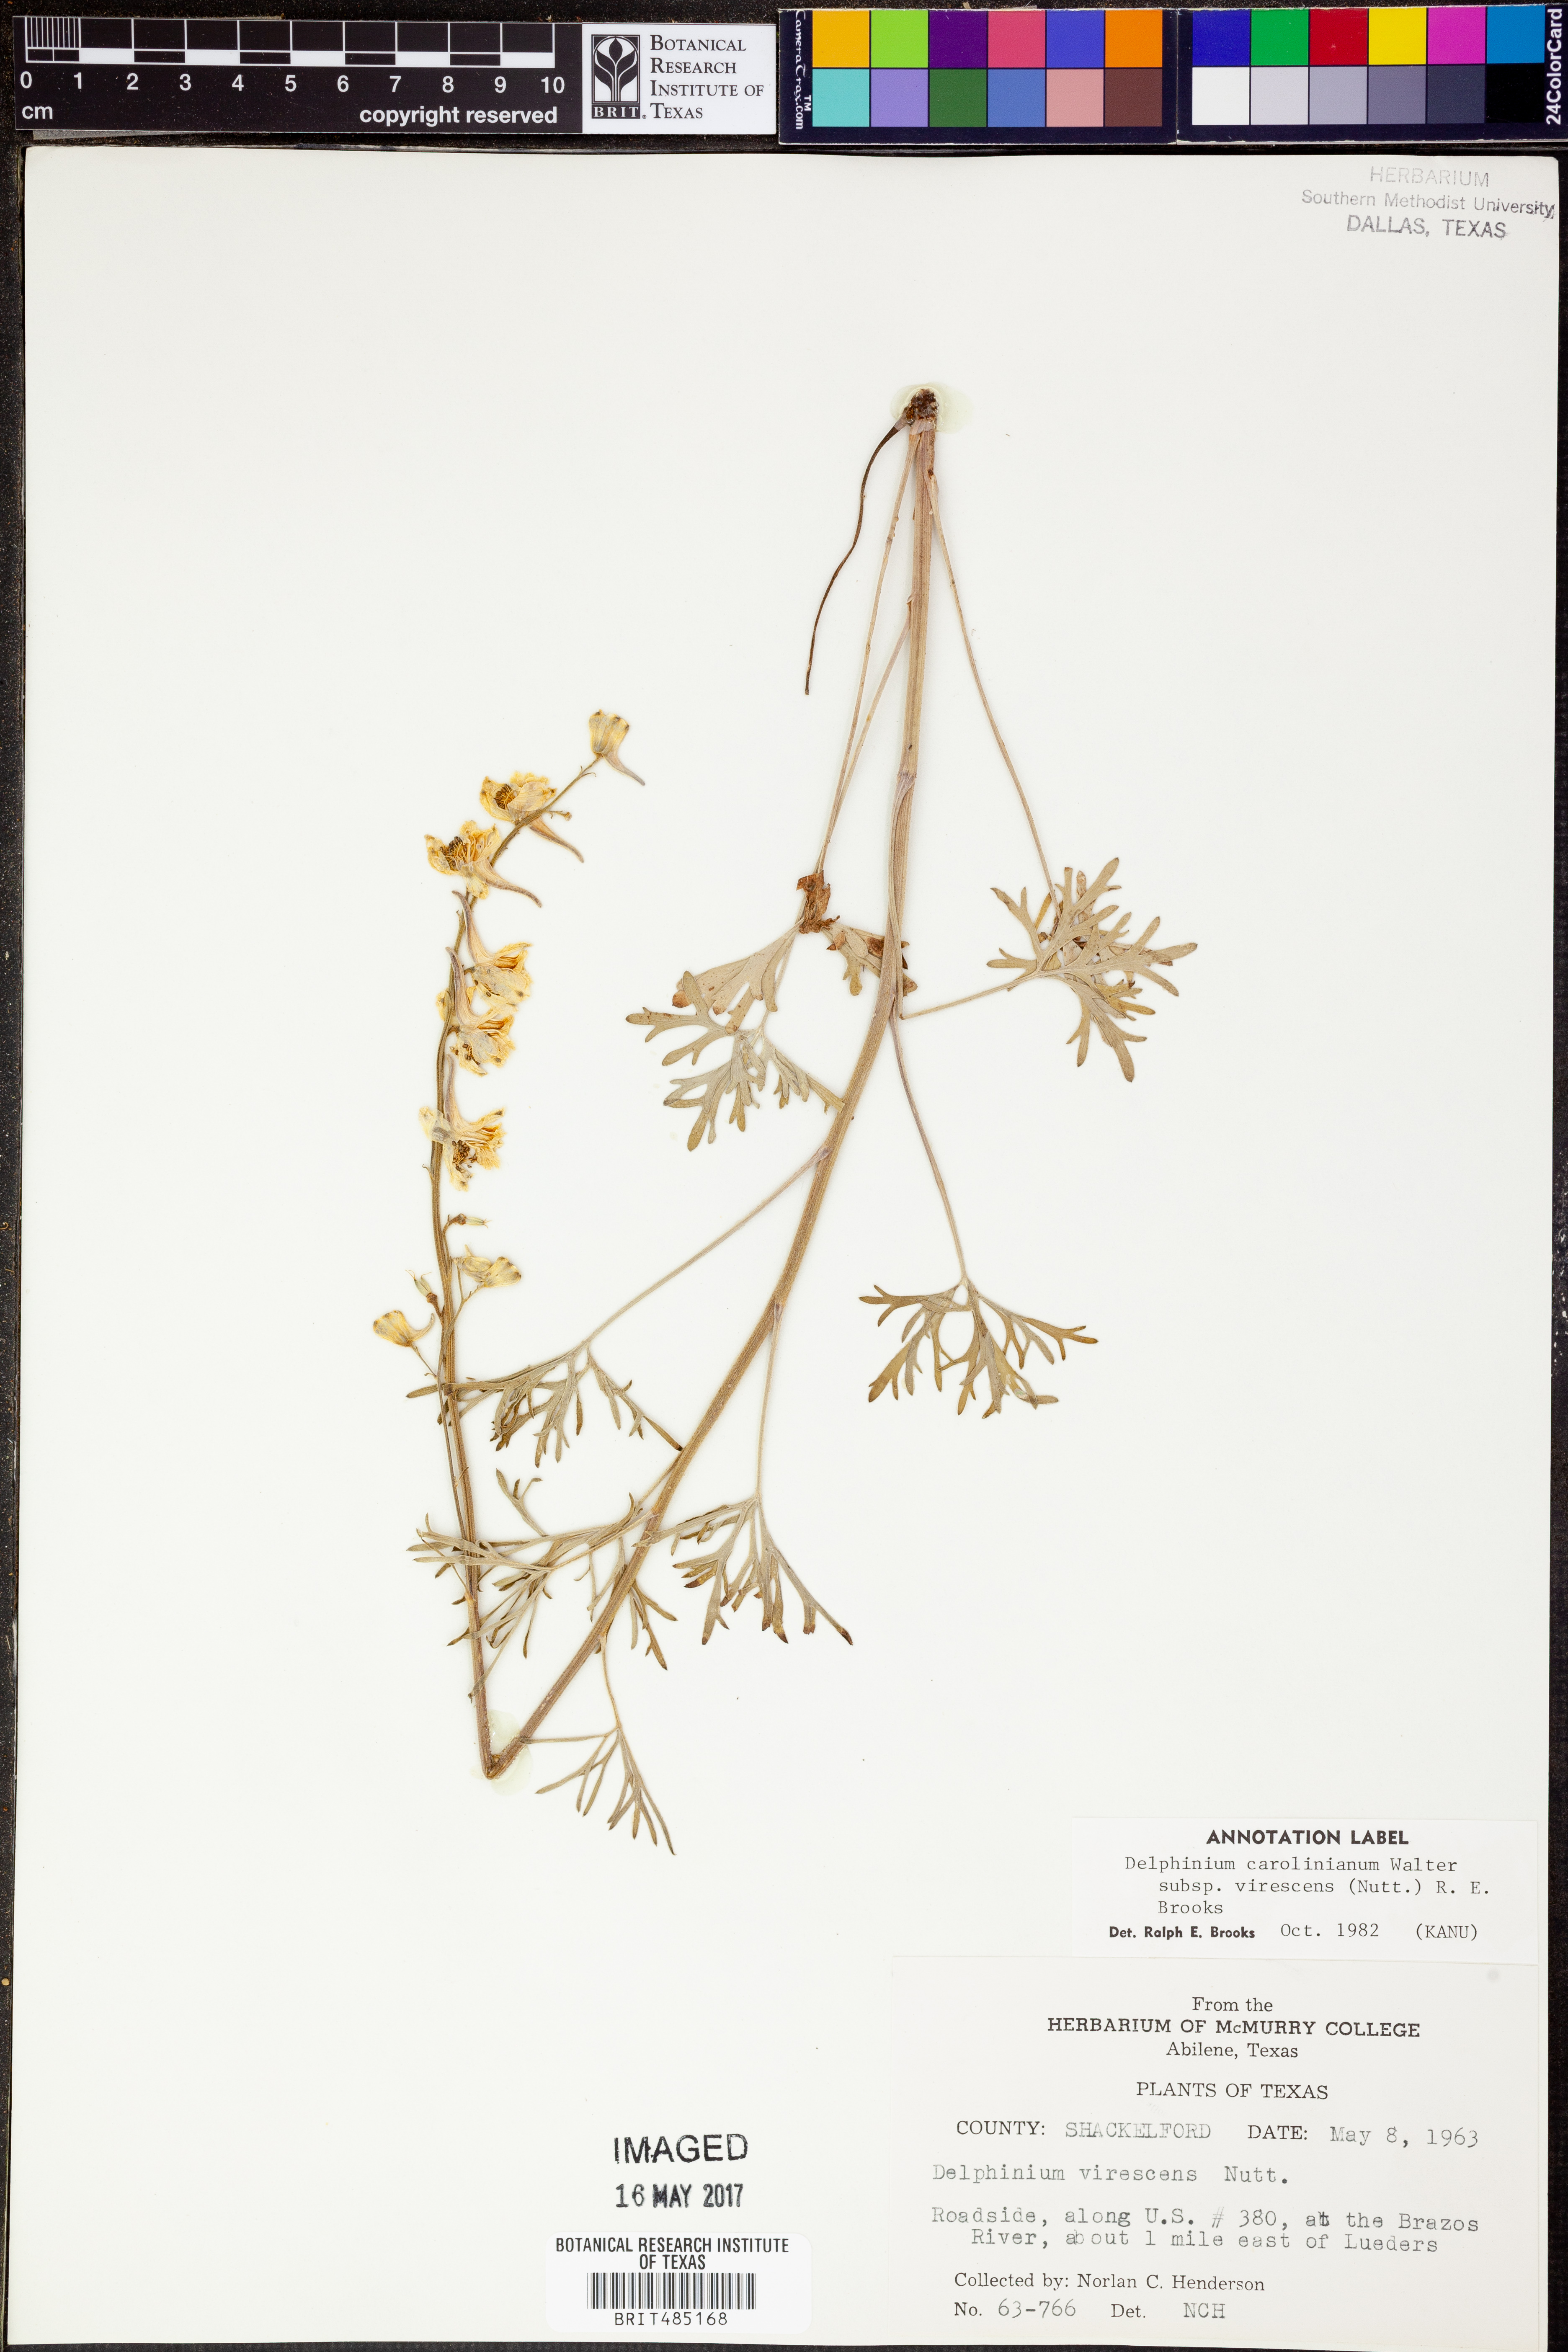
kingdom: Plantae
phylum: Tracheophyta
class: Magnoliopsida
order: Ranunculales
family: Ranunculaceae
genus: Delphinium
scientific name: Delphinium carolinianum
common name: Carolina larkspur
